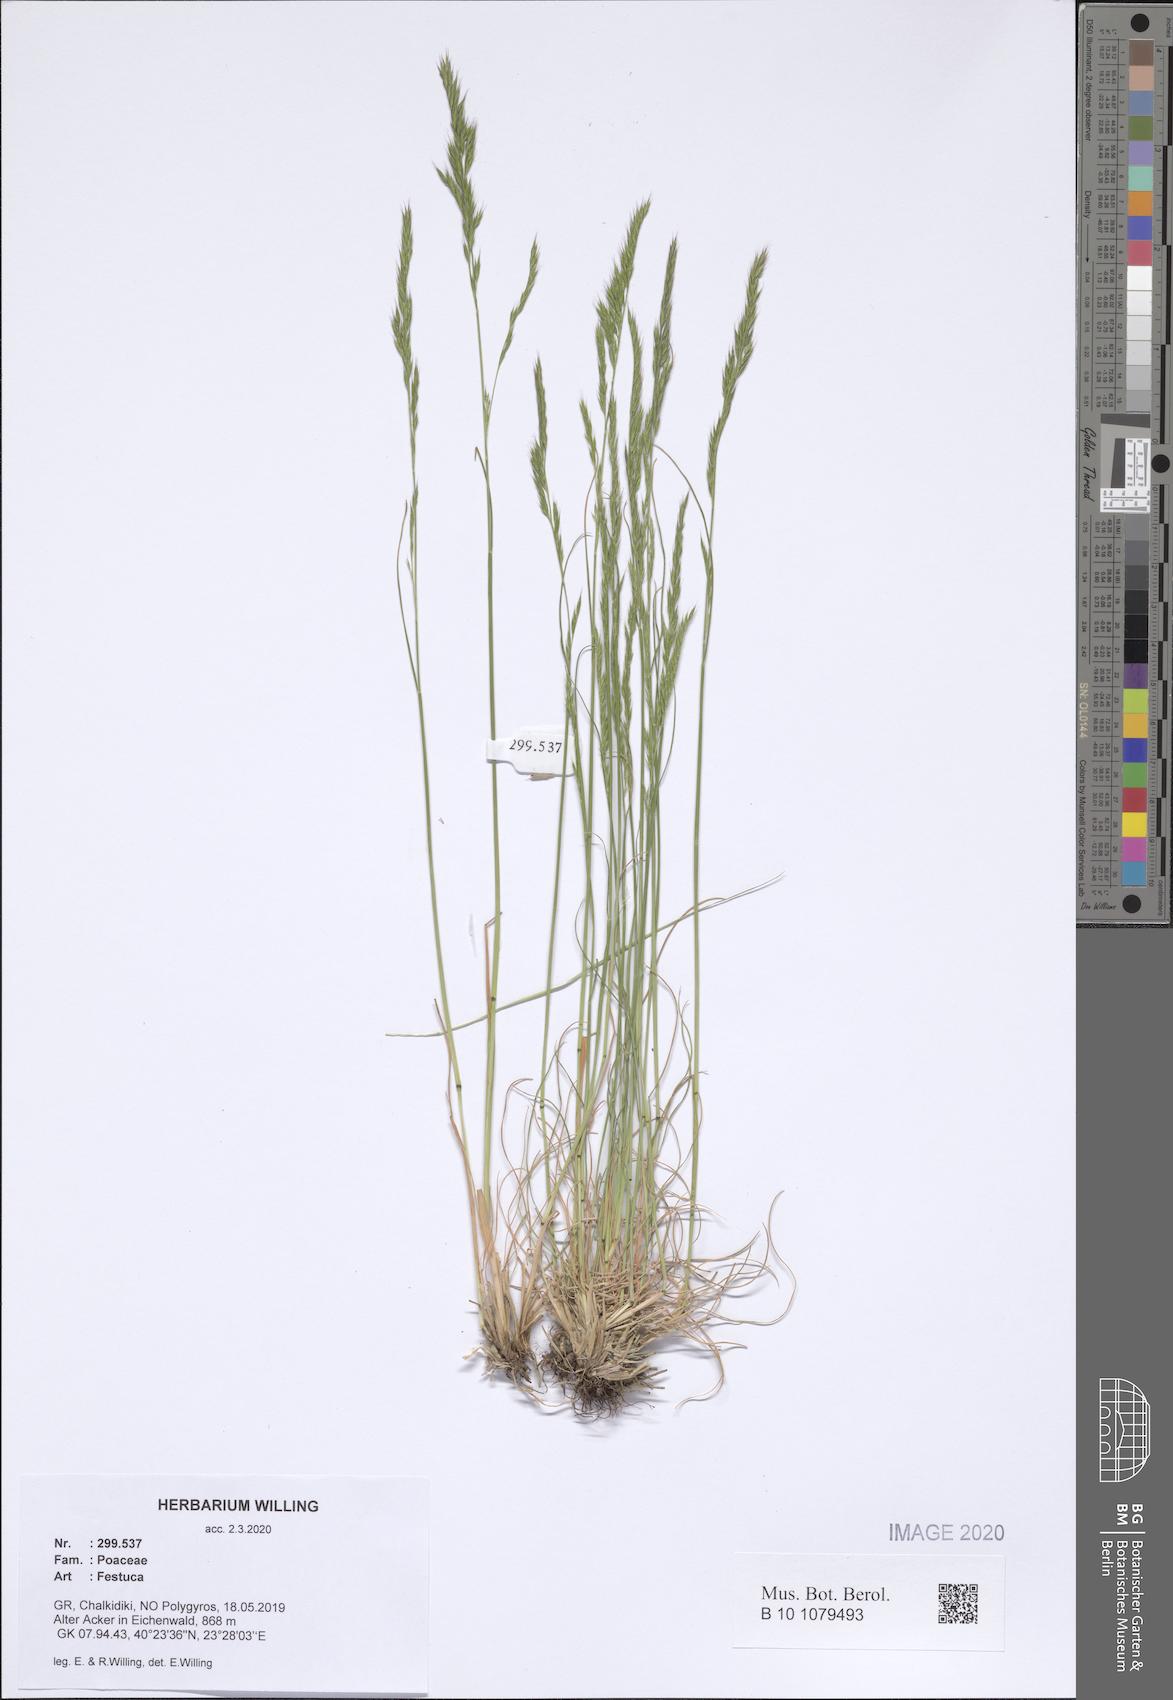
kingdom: Plantae
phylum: Tracheophyta
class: Liliopsida
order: Poales
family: Poaceae
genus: Festuca
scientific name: Festuca
